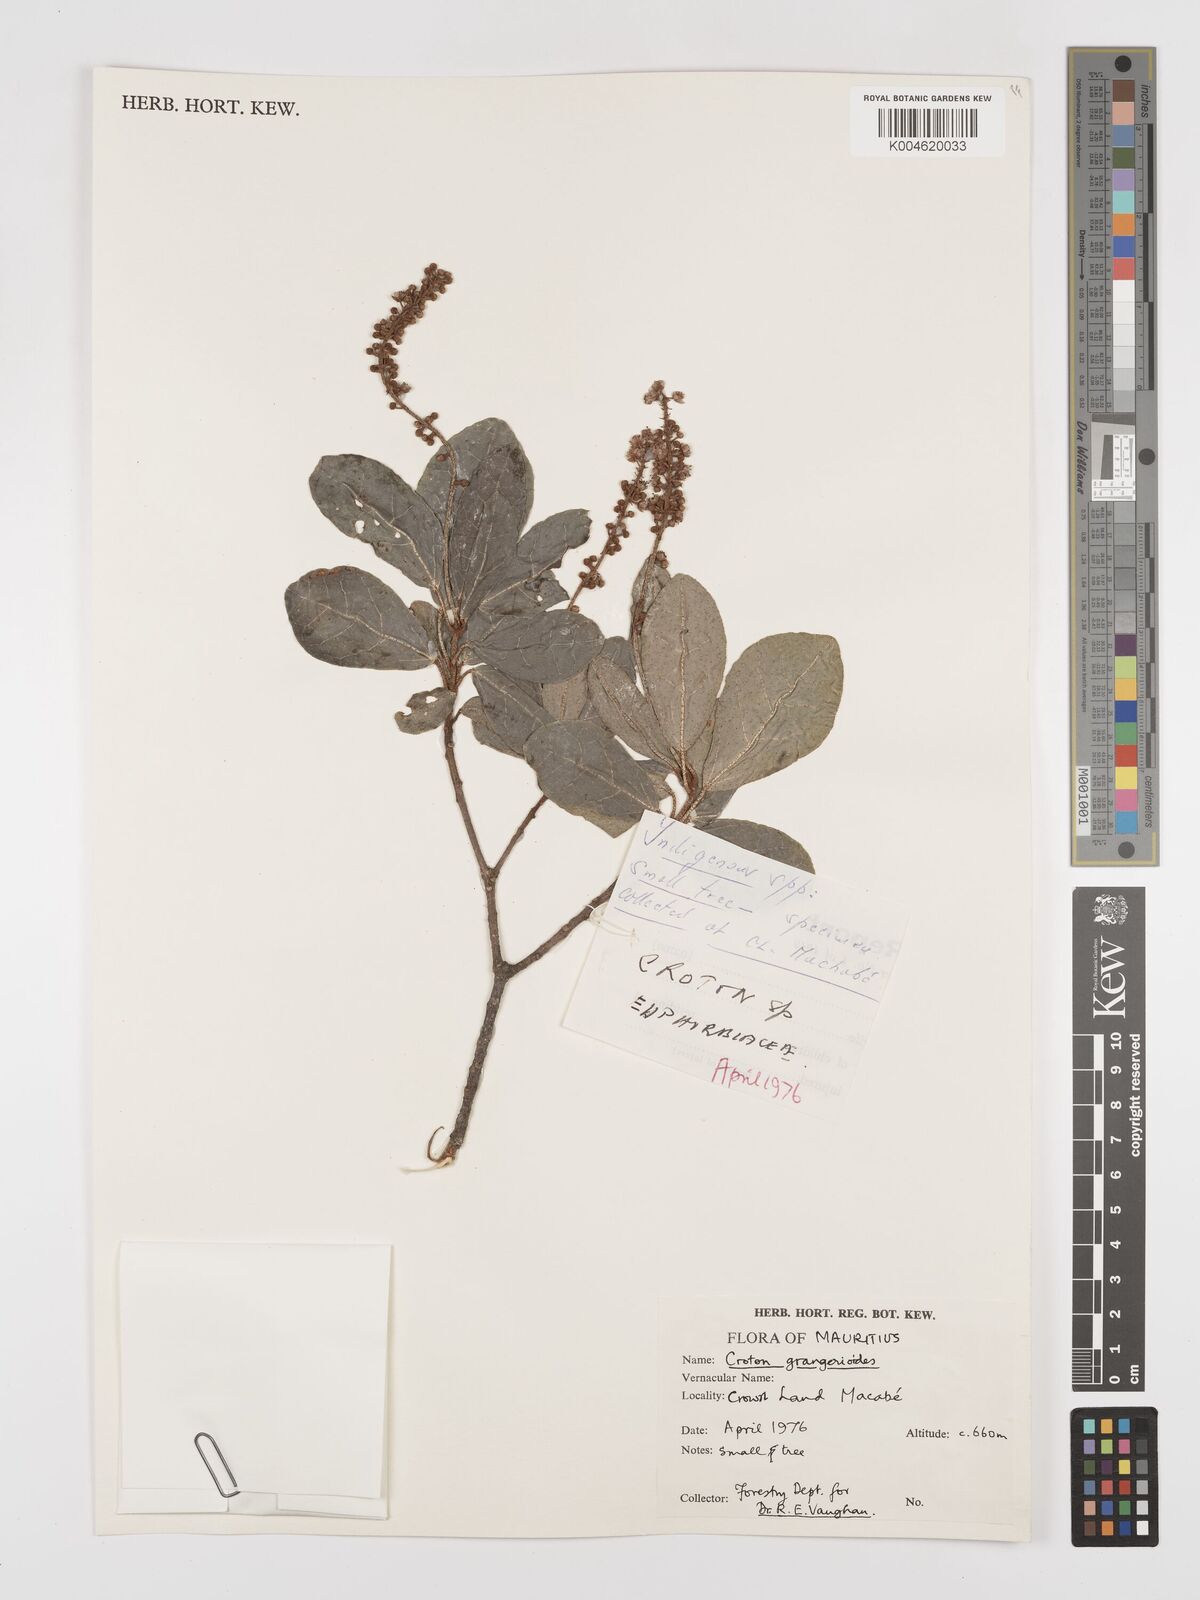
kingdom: Plantae
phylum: Tracheophyta
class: Magnoliopsida
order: Malpighiales
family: Euphorbiaceae
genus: Croton
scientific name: Croton grangerioides
